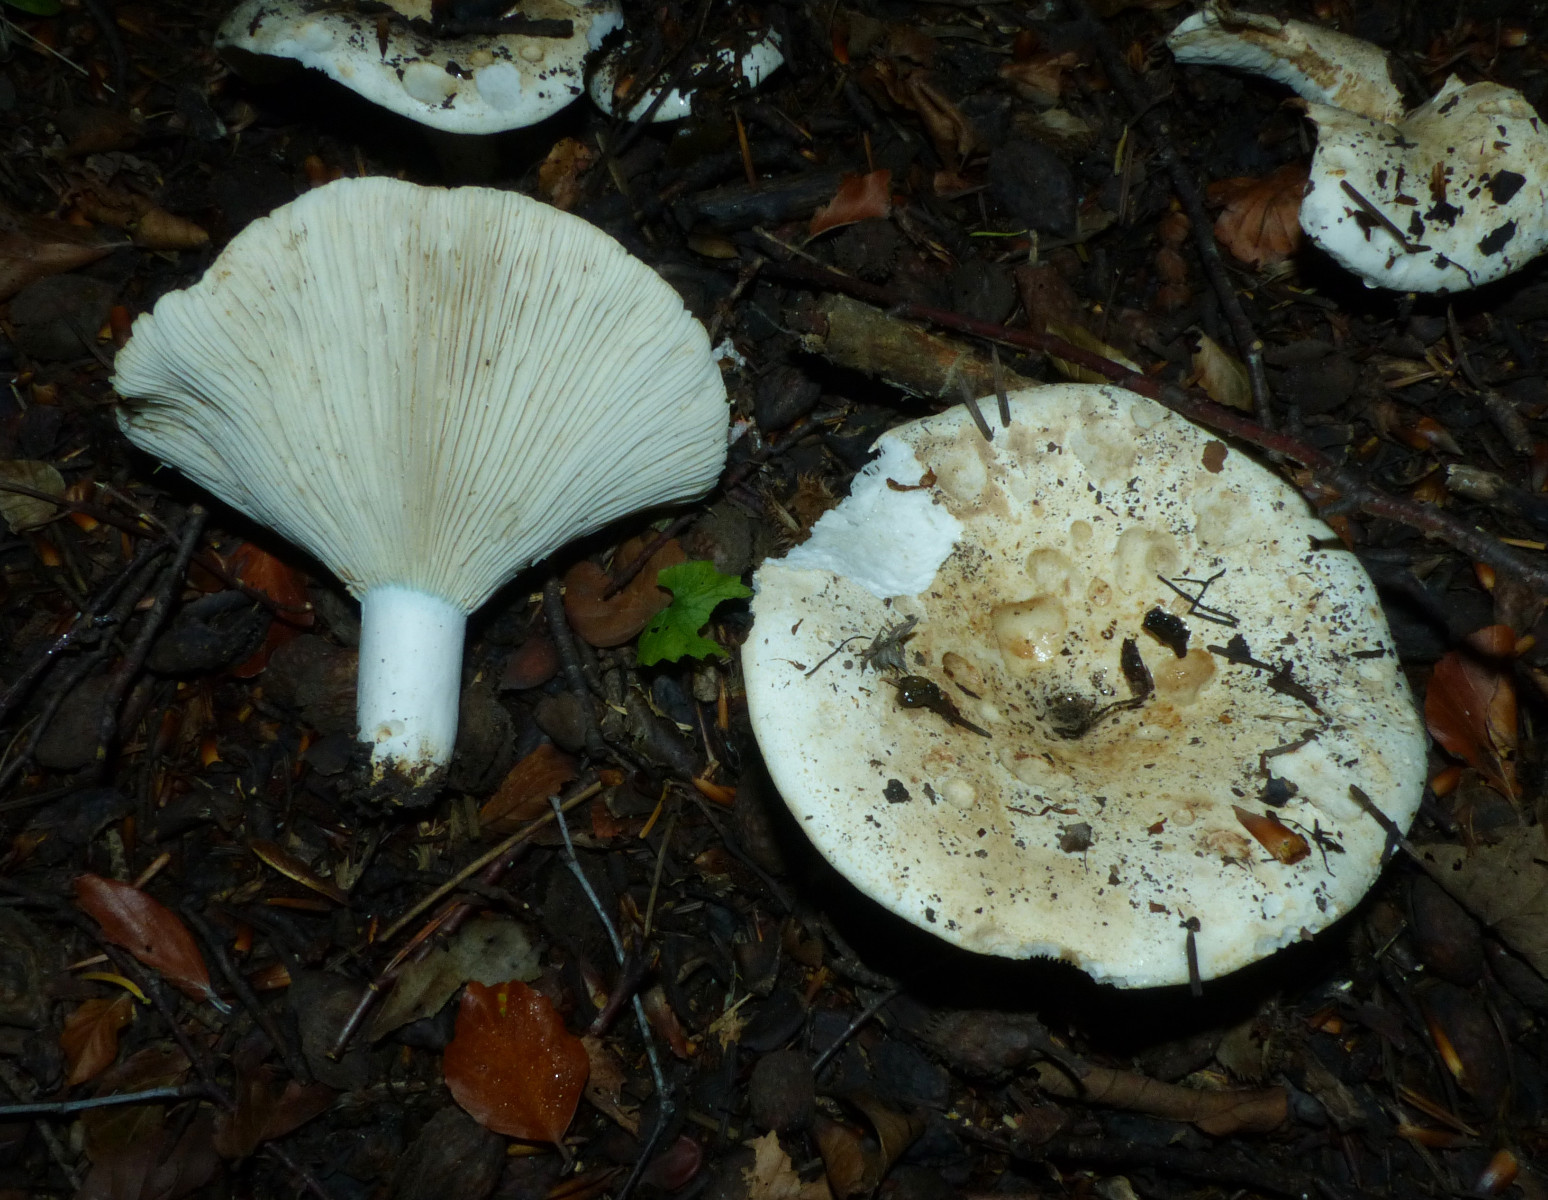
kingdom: Fungi
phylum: Basidiomycota
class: Agaricomycetes
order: Russulales
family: Russulaceae
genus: Russula
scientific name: Russula chloroides
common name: grønhalset tragt-skørhat
